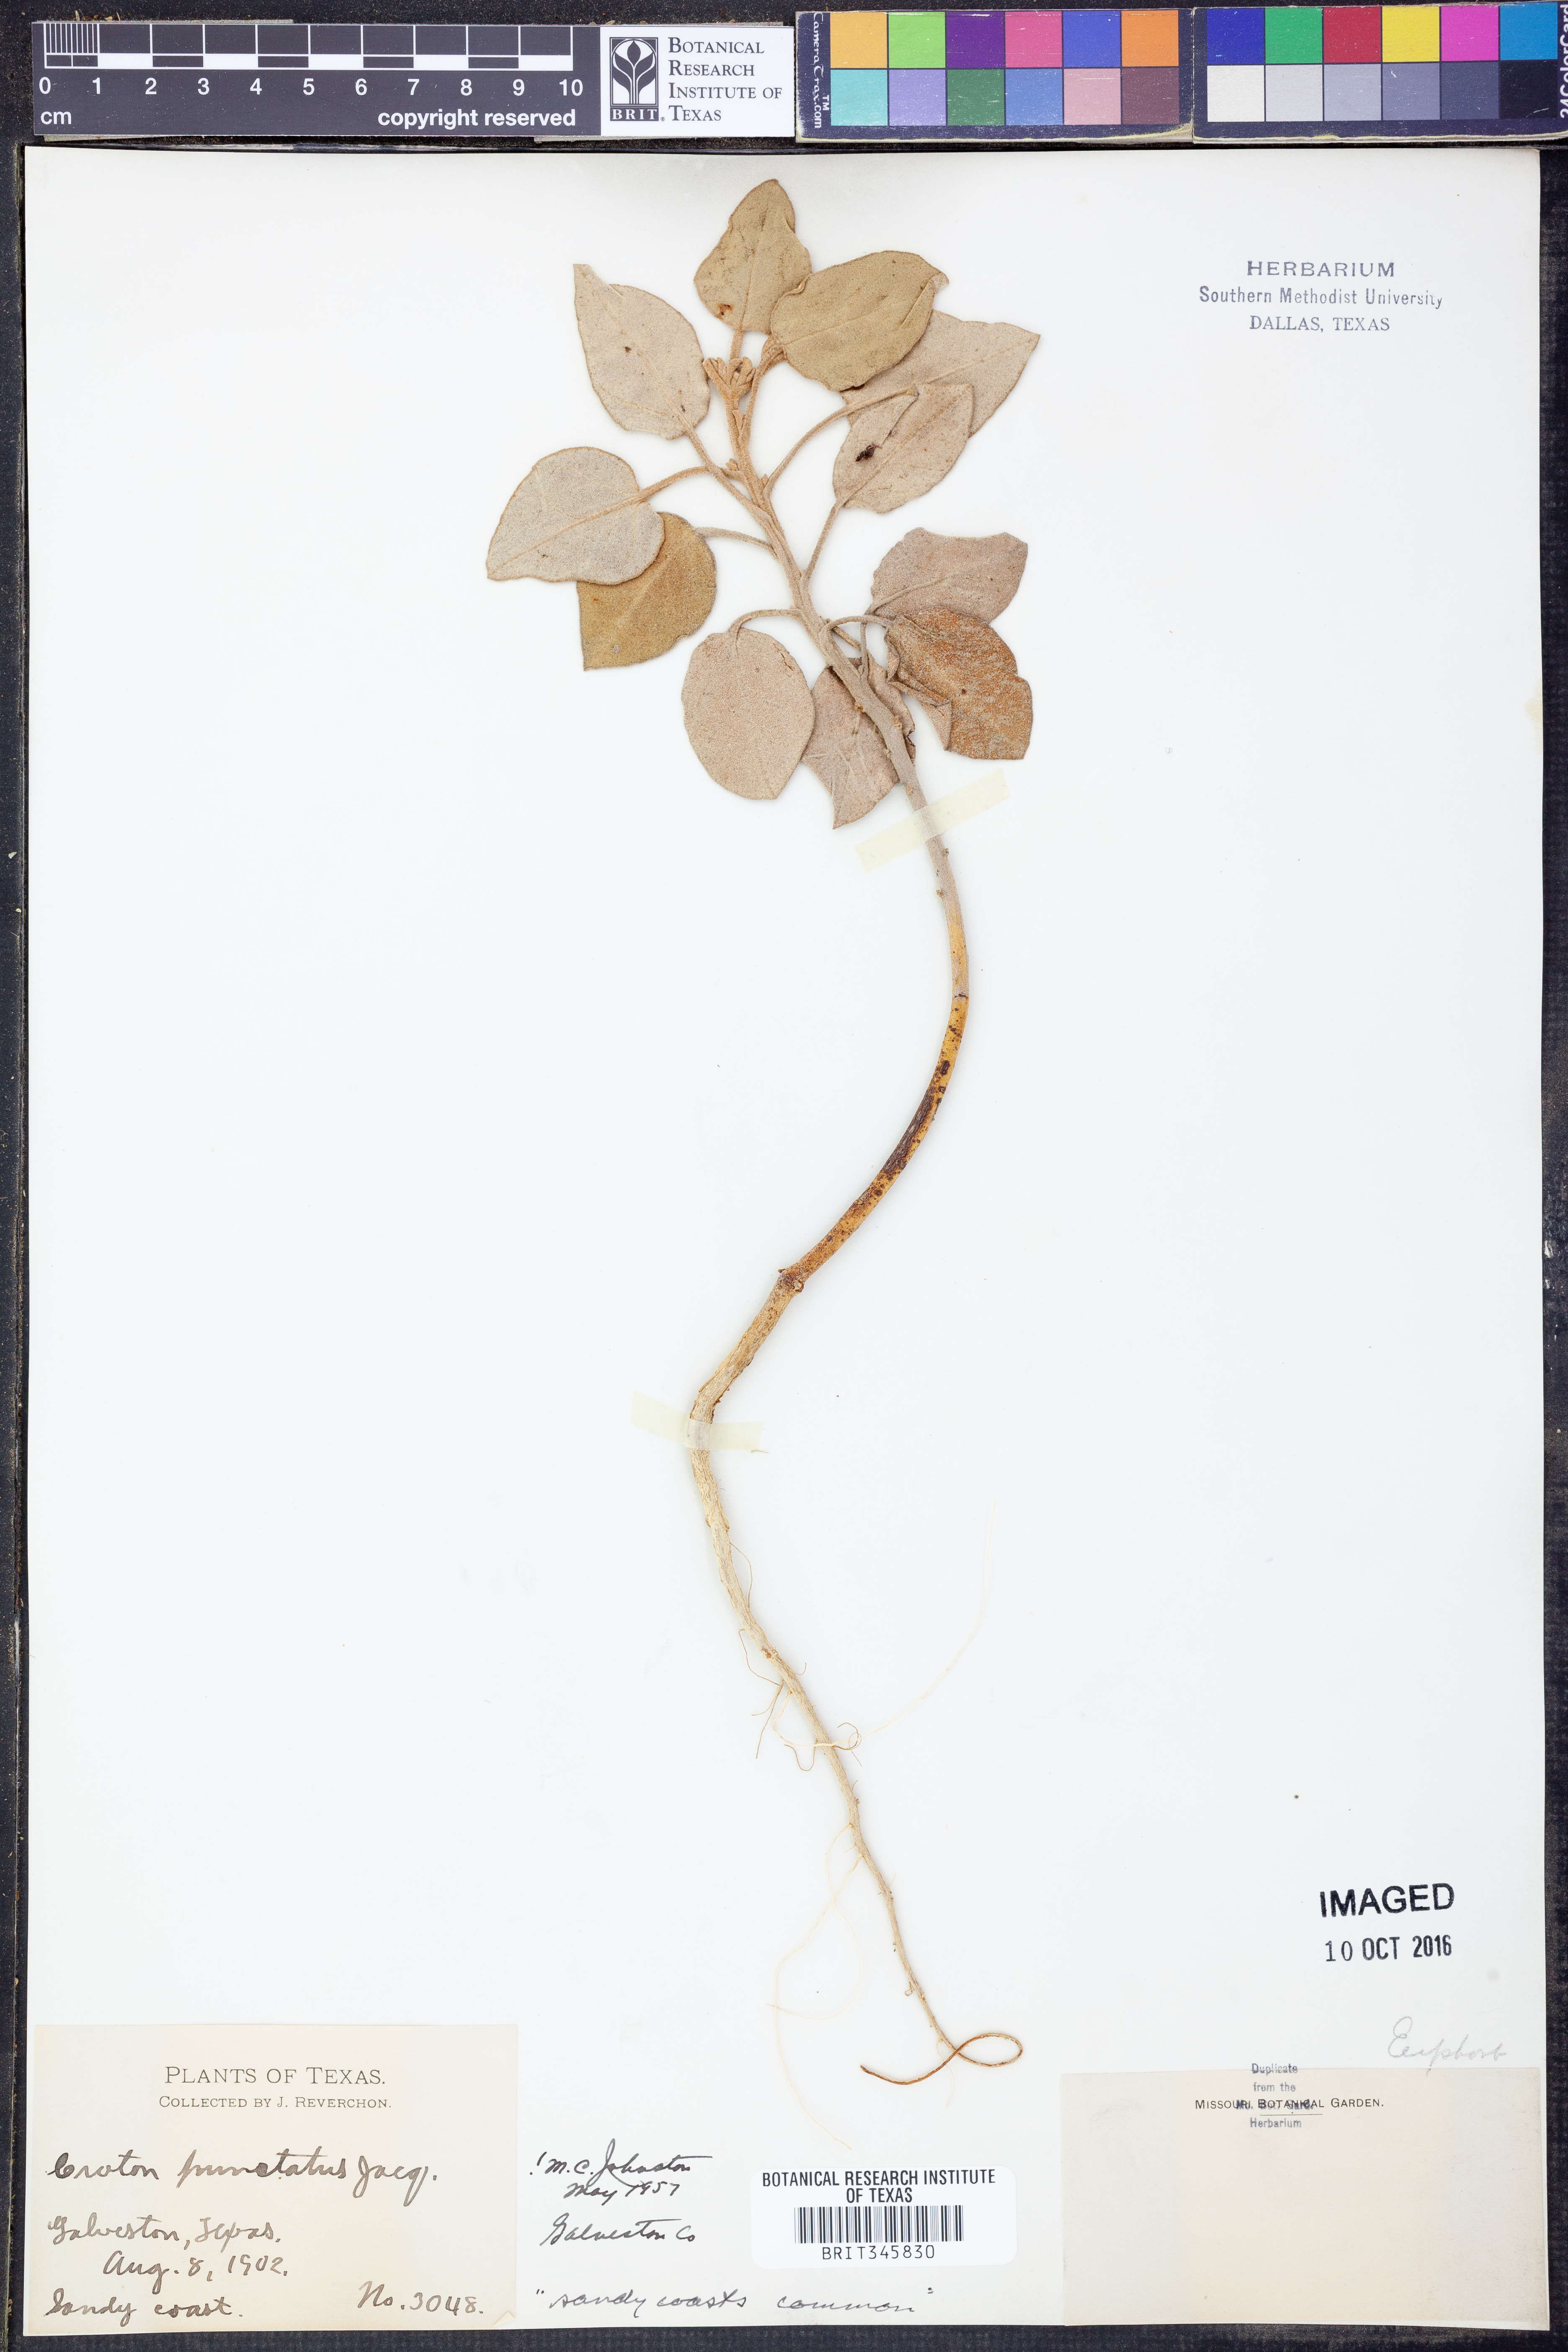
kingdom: Plantae
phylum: Tracheophyta
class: Magnoliopsida
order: Malpighiales
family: Euphorbiaceae
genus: Croton
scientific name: Croton punctatus
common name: Beach-tea
